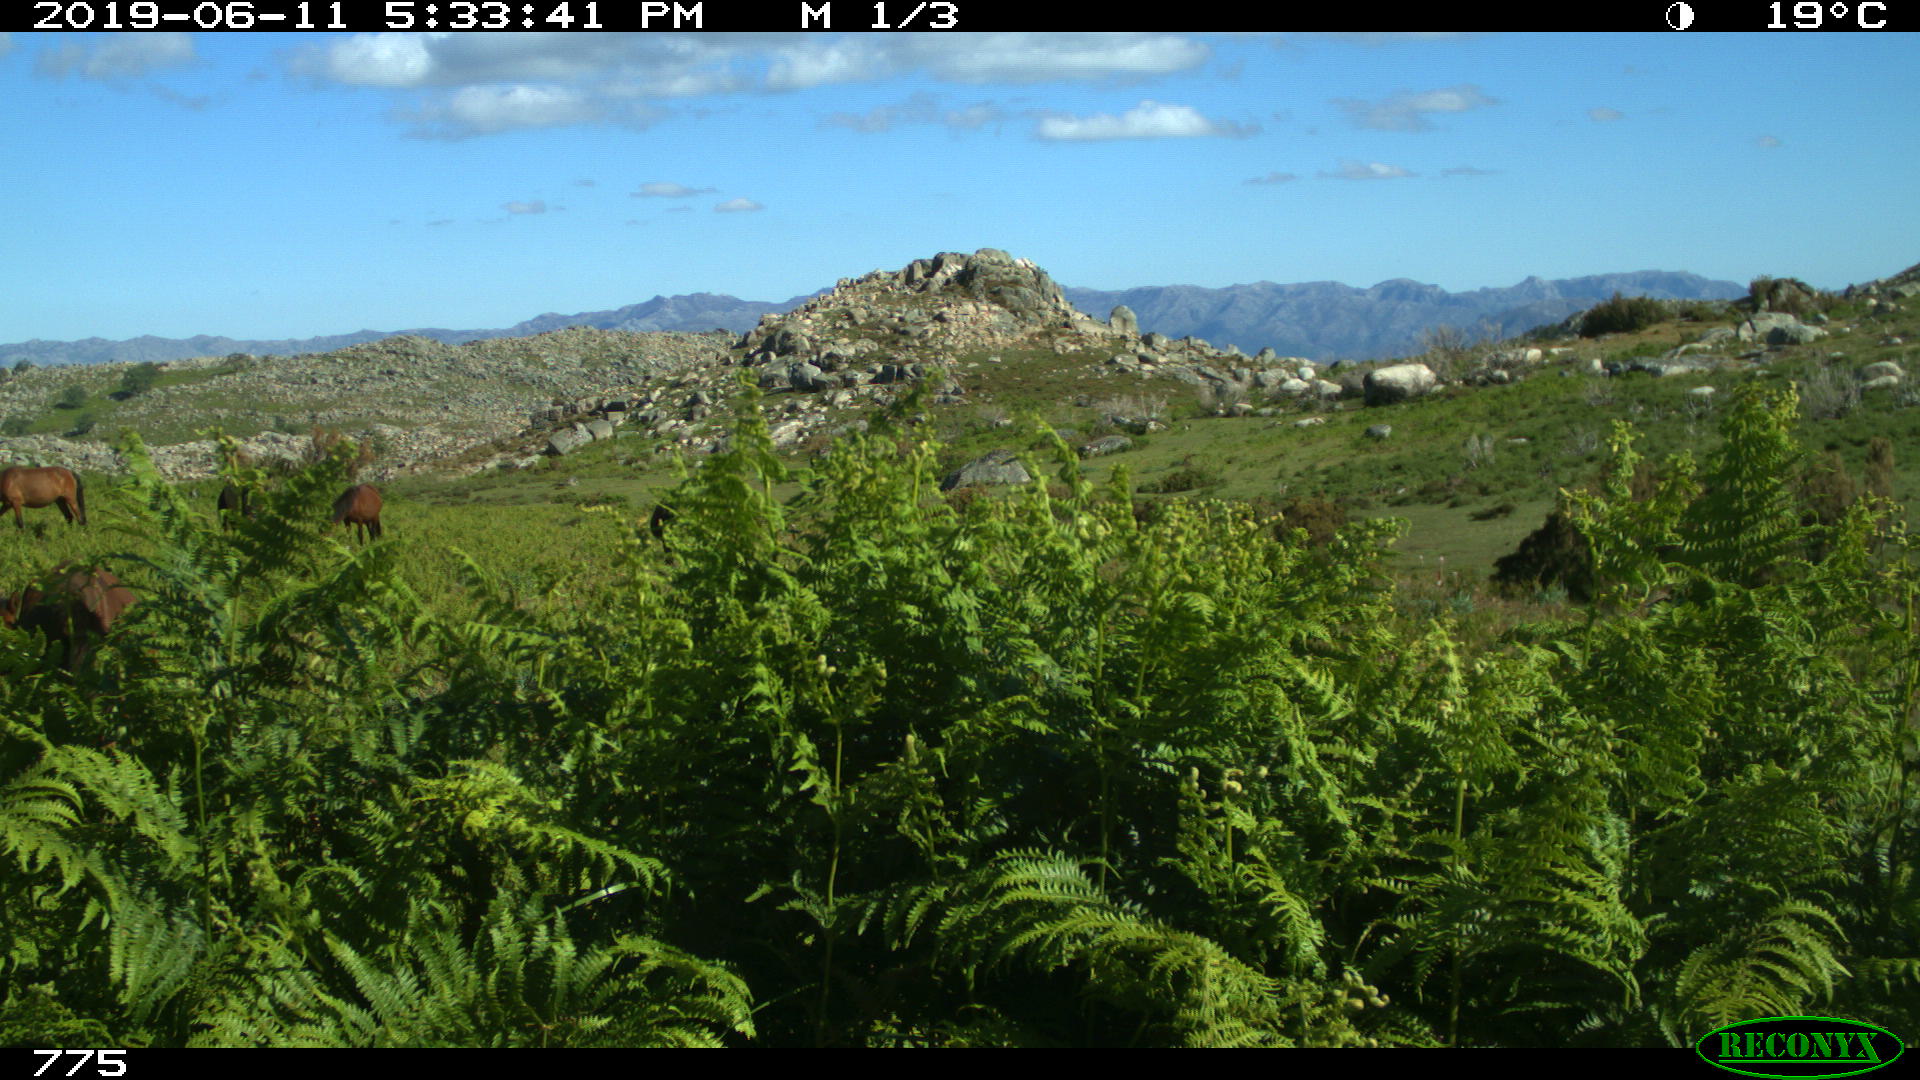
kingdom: Animalia
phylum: Chordata
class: Mammalia
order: Perissodactyla
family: Equidae
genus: Equus
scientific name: Equus caballus
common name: Horse
